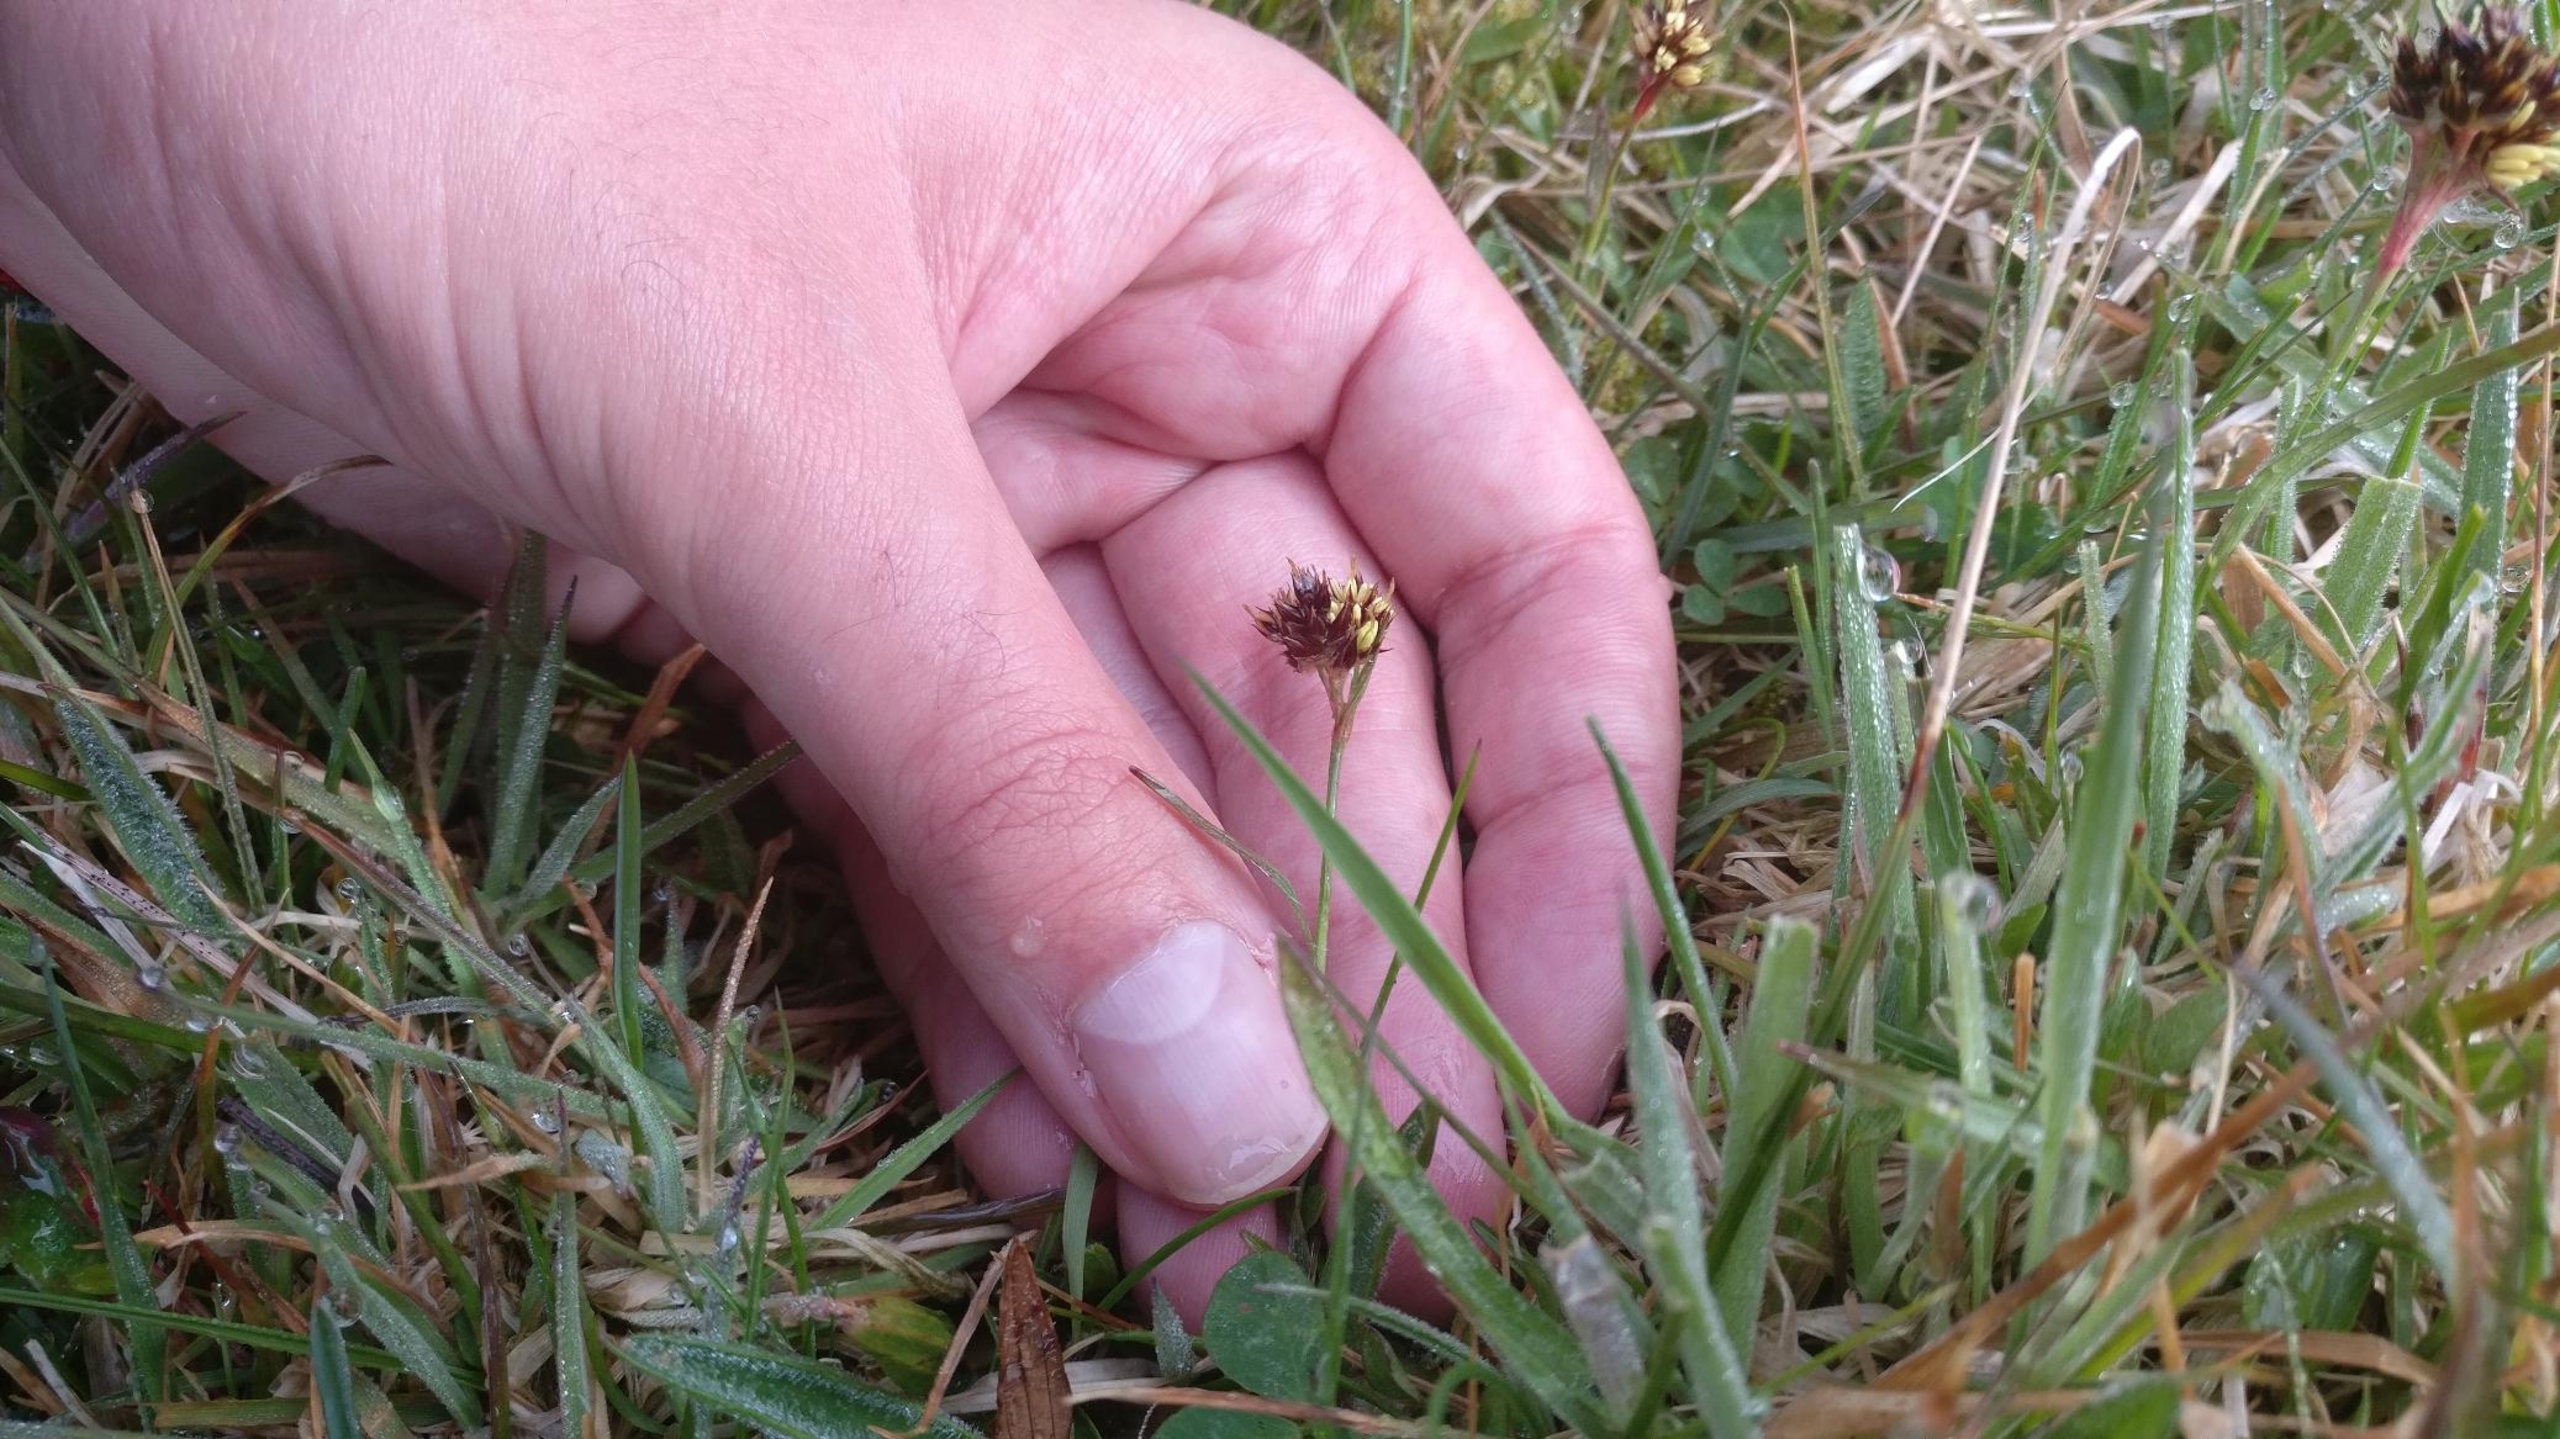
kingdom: Plantae
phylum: Tracheophyta
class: Liliopsida
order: Poales
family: Juncaceae
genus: Luzula
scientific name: Luzula campestris
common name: Mark-frytle
